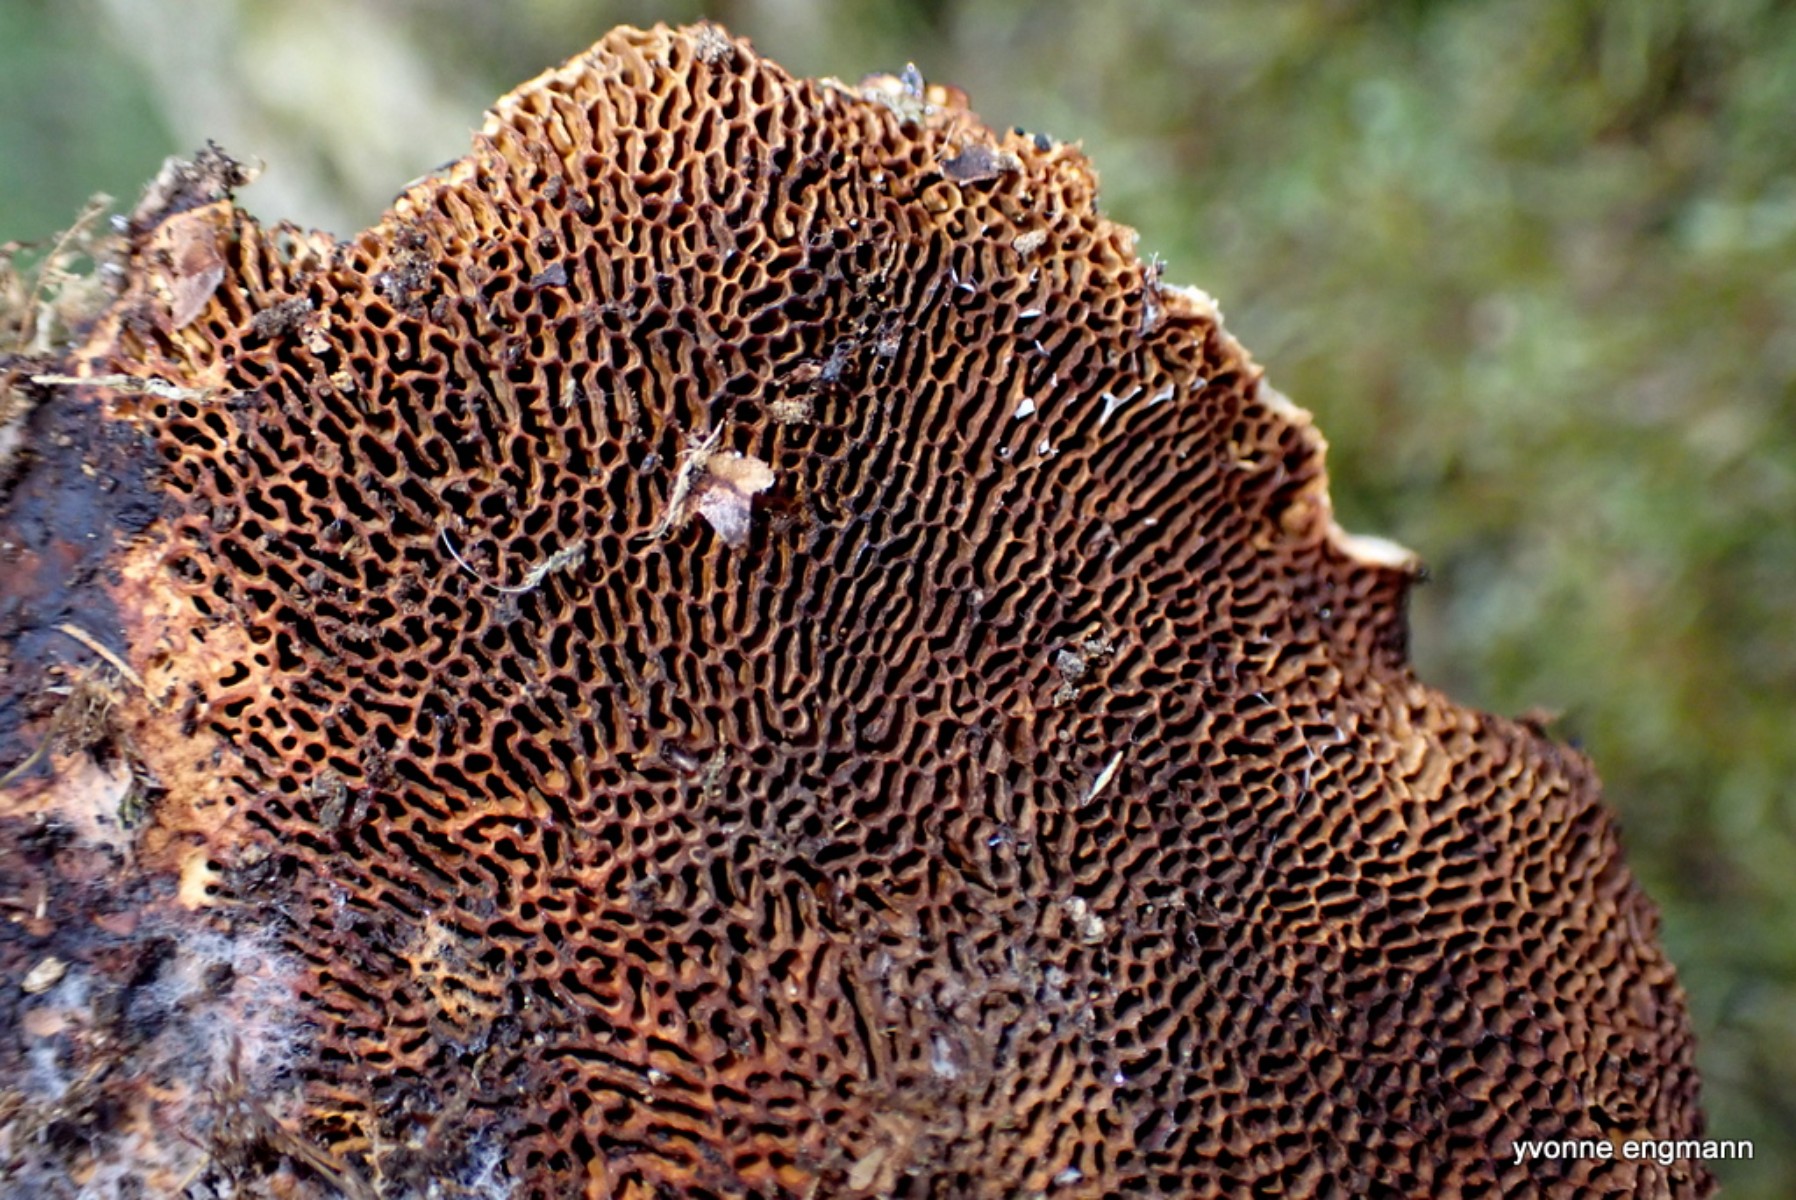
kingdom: Fungi
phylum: Basidiomycota
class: Agaricomycetes
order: Polyporales
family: Polyporaceae
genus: Daedaleopsis
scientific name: Daedaleopsis confragosa
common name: rødmende læderporesvamp
